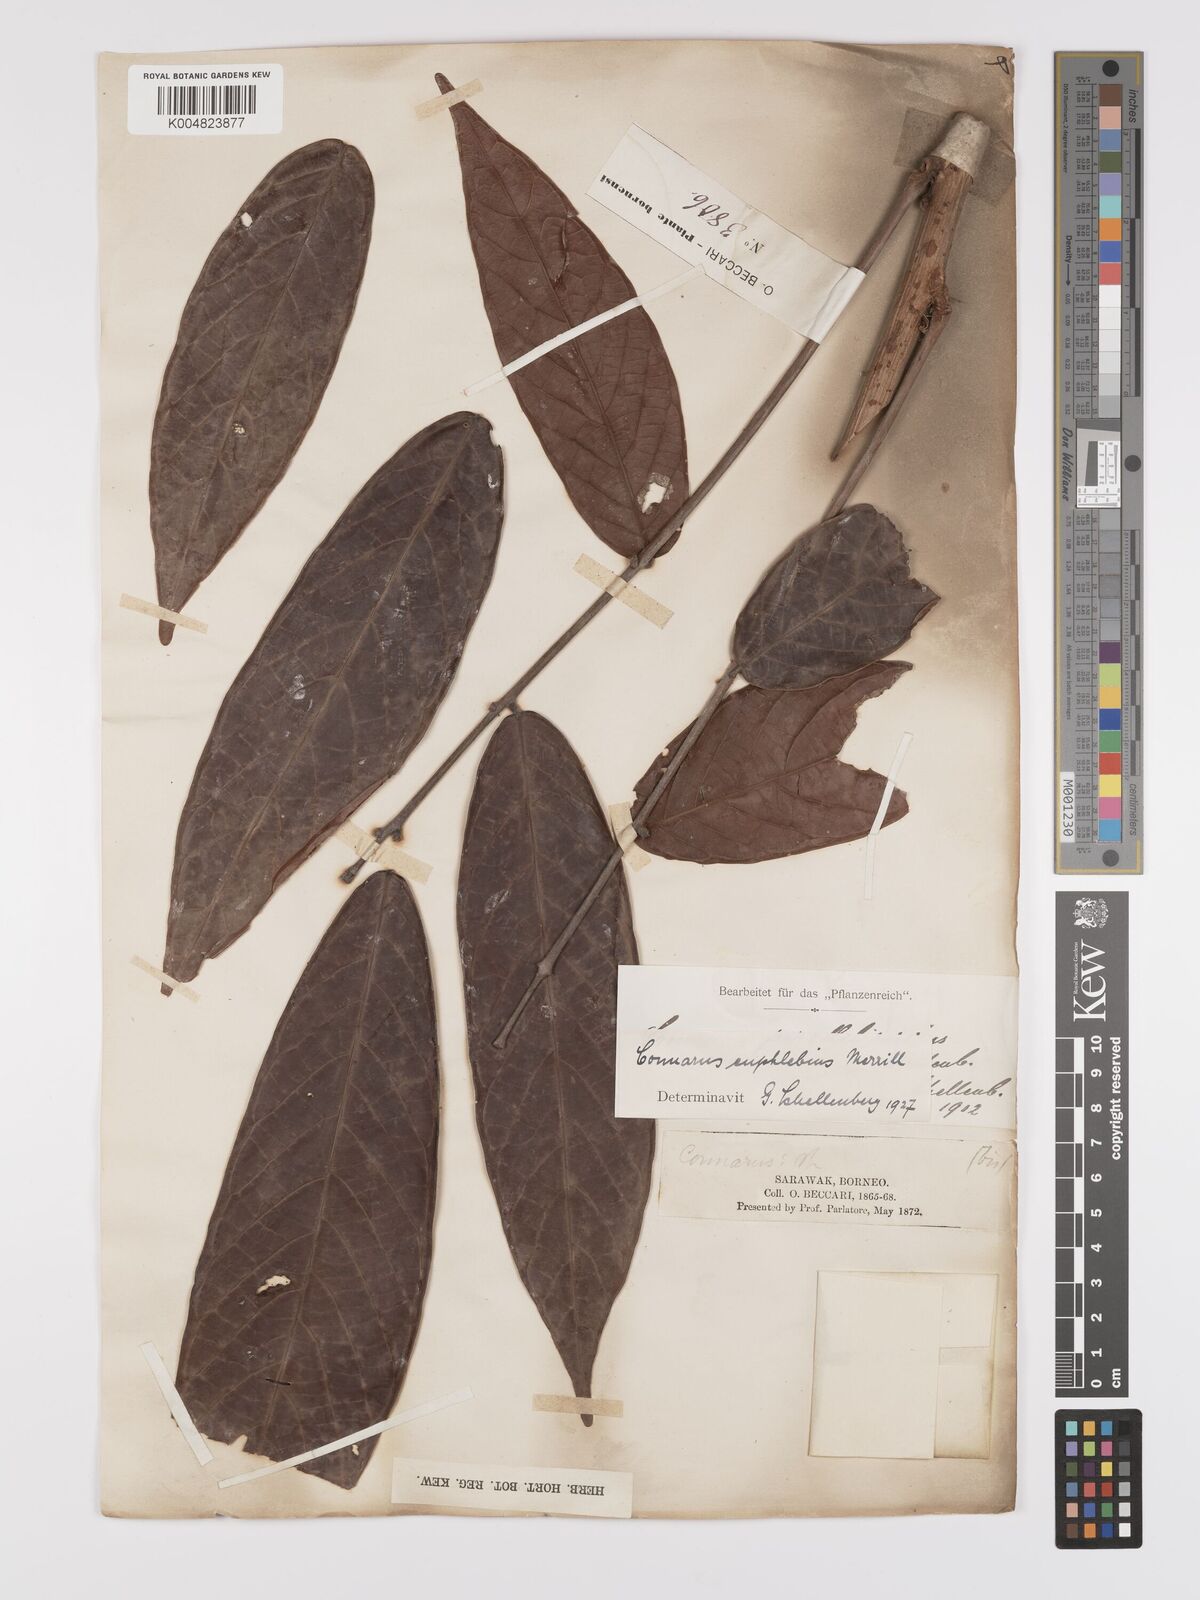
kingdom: Plantae
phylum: Tracheophyta
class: Magnoliopsida
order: Oxalidales
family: Connaraceae
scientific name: Connaraceae
